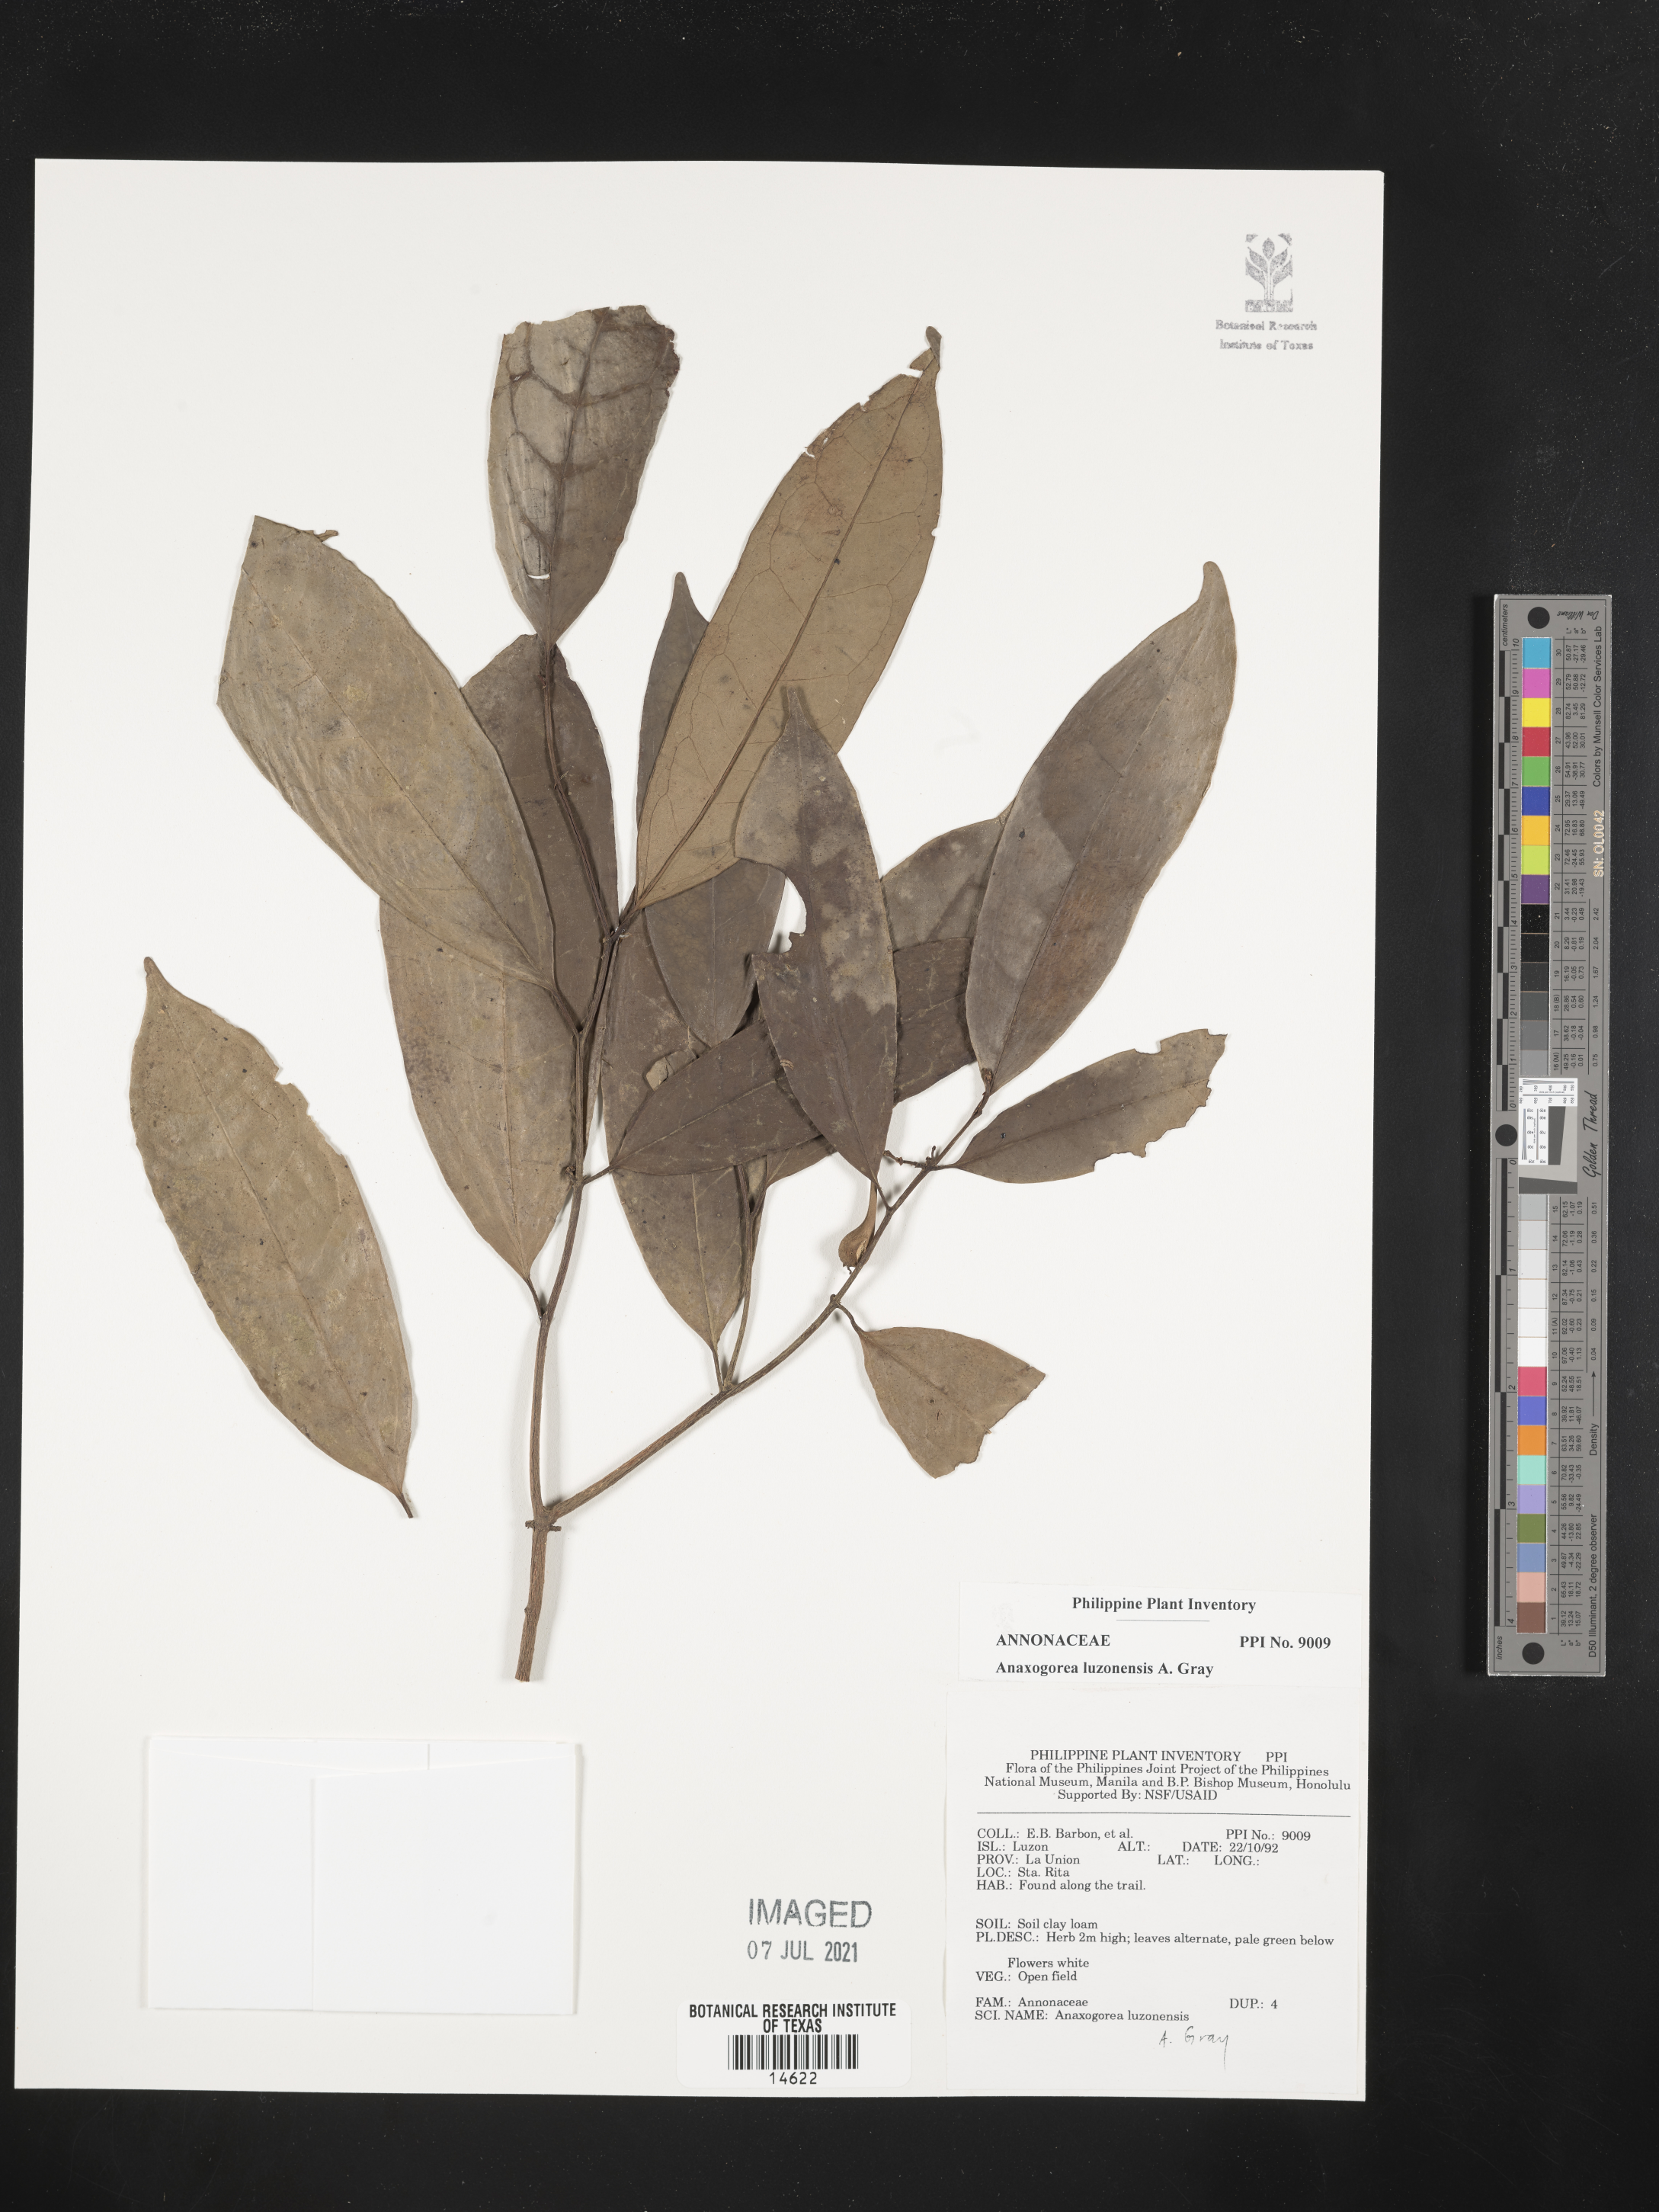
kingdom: Plantae
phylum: Tracheophyta
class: Magnoliopsida
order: Magnoliales
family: Annonaceae
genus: Anaxagorea
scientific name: Anaxagorea luzonensis
